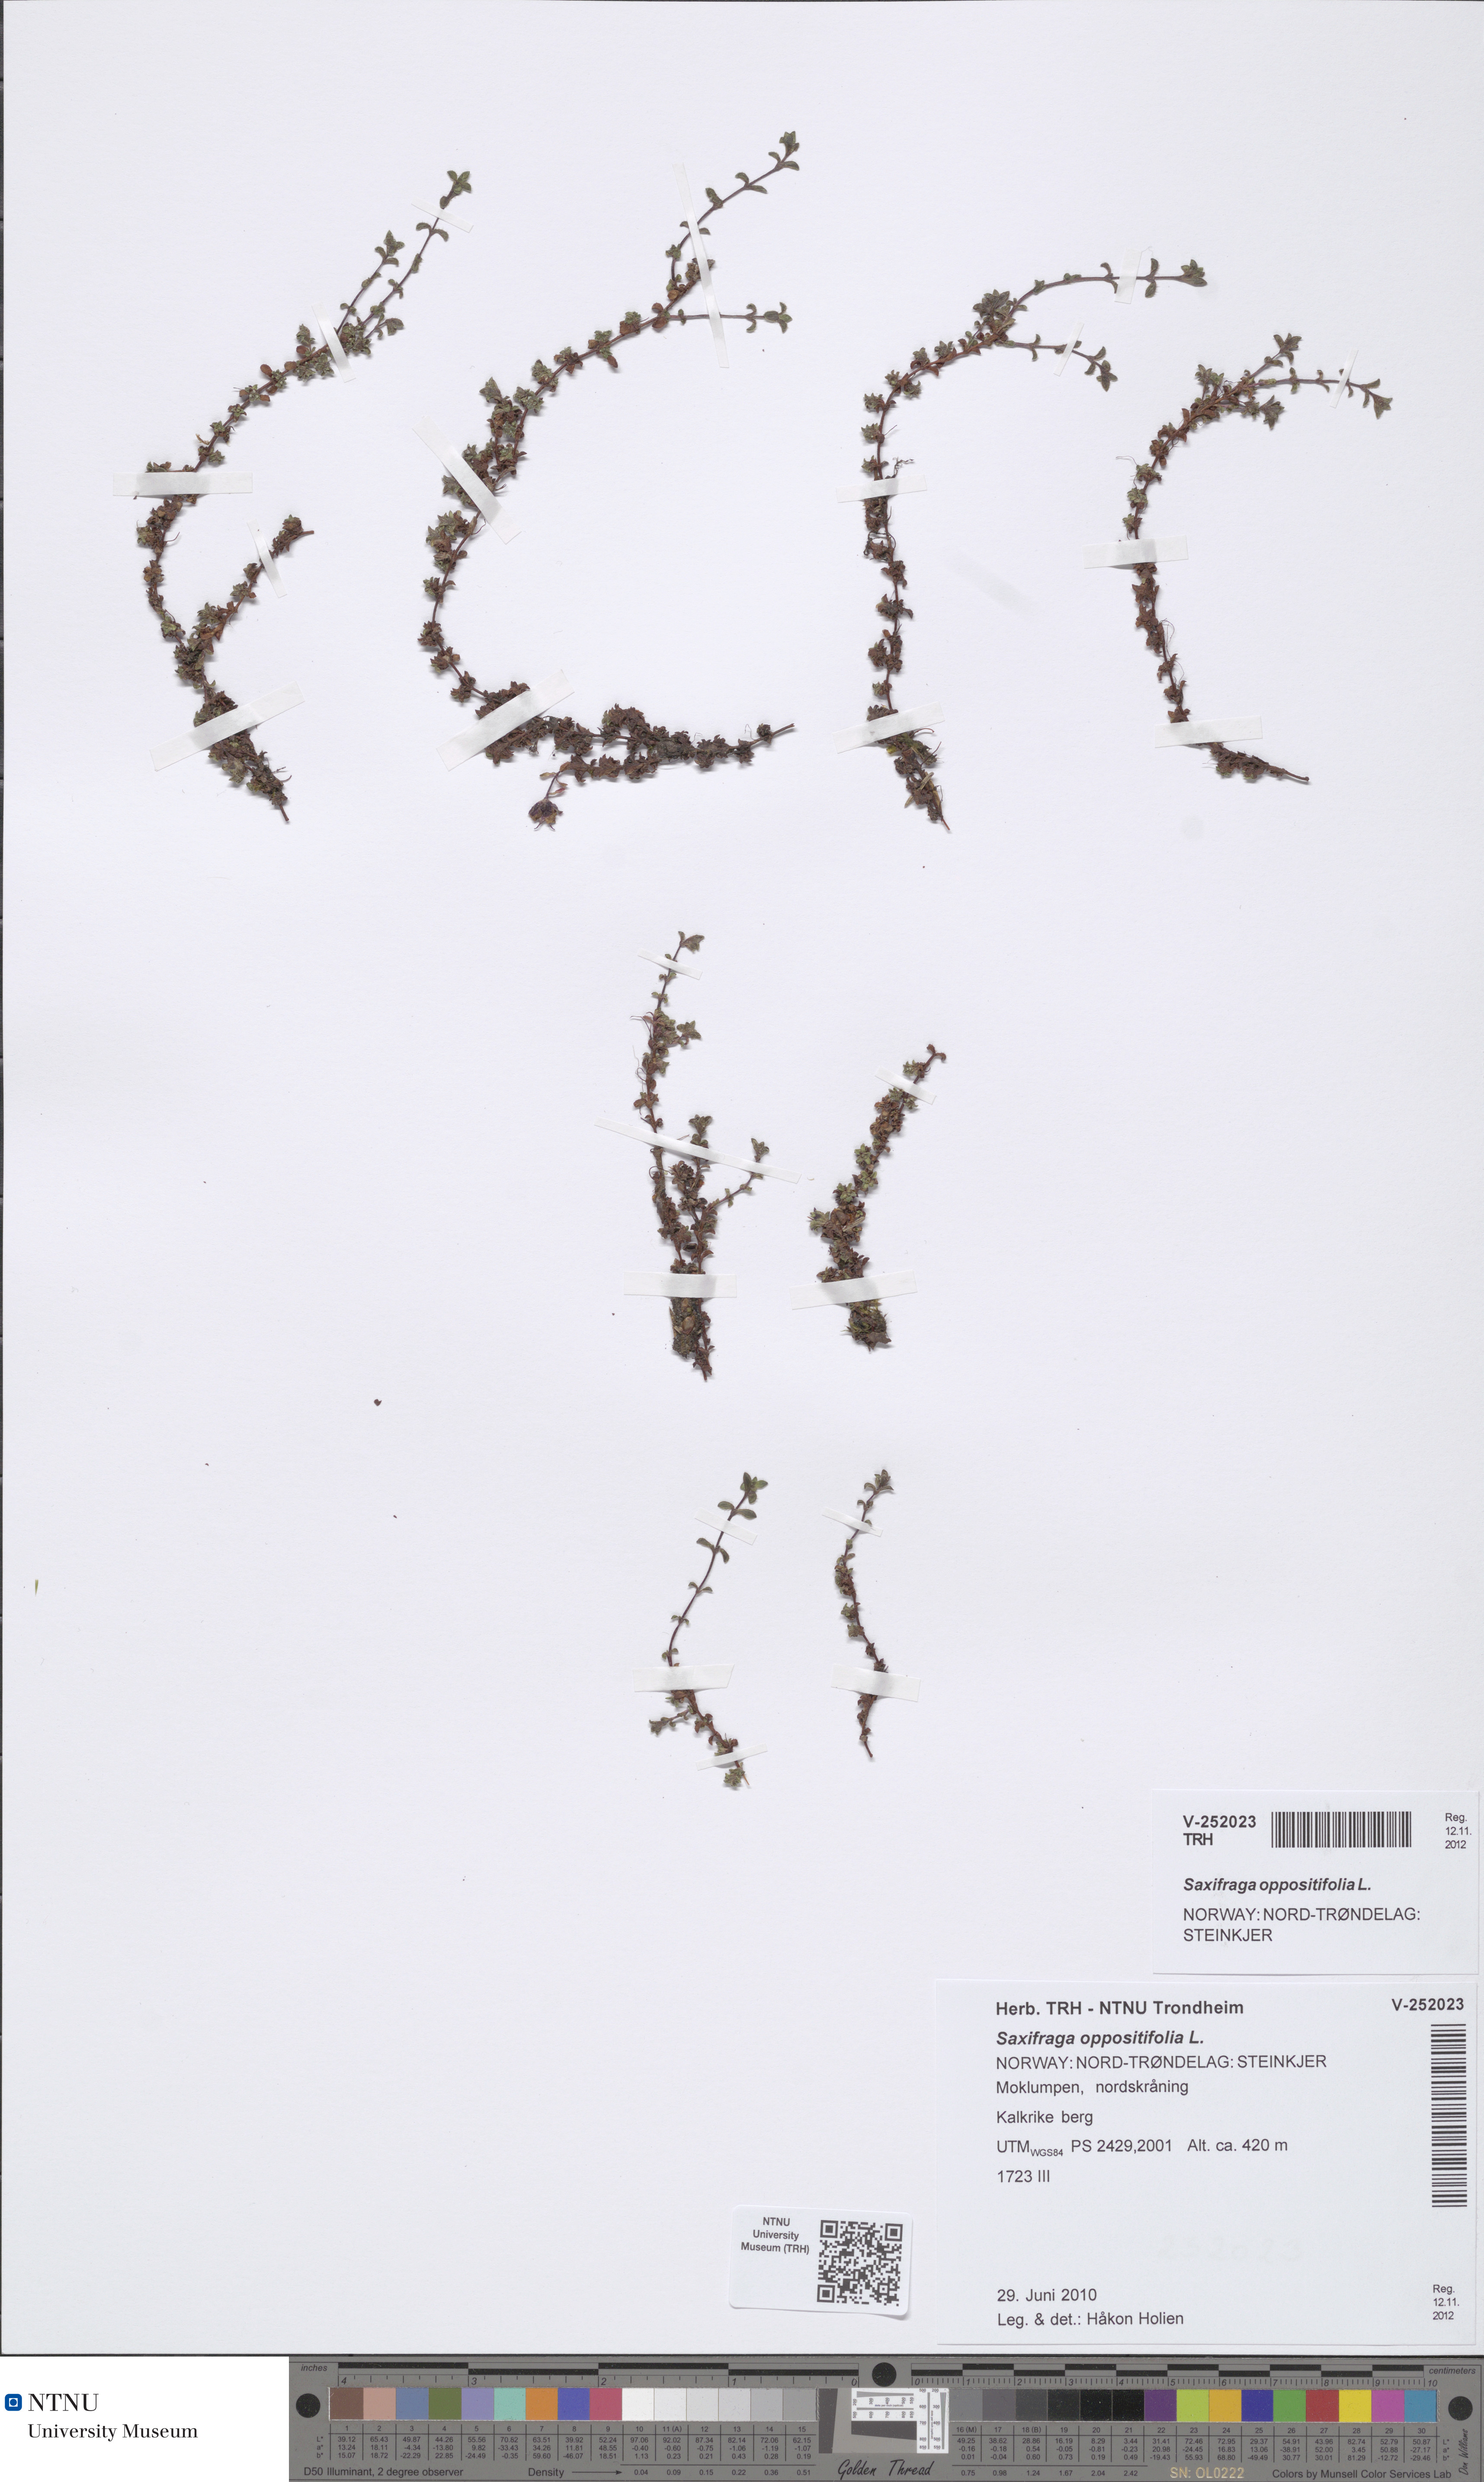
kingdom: Plantae
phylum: Tracheophyta
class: Magnoliopsida
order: Saxifragales
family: Saxifragaceae
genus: Saxifraga
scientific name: Saxifraga oppositifolia
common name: Purple saxifrage
